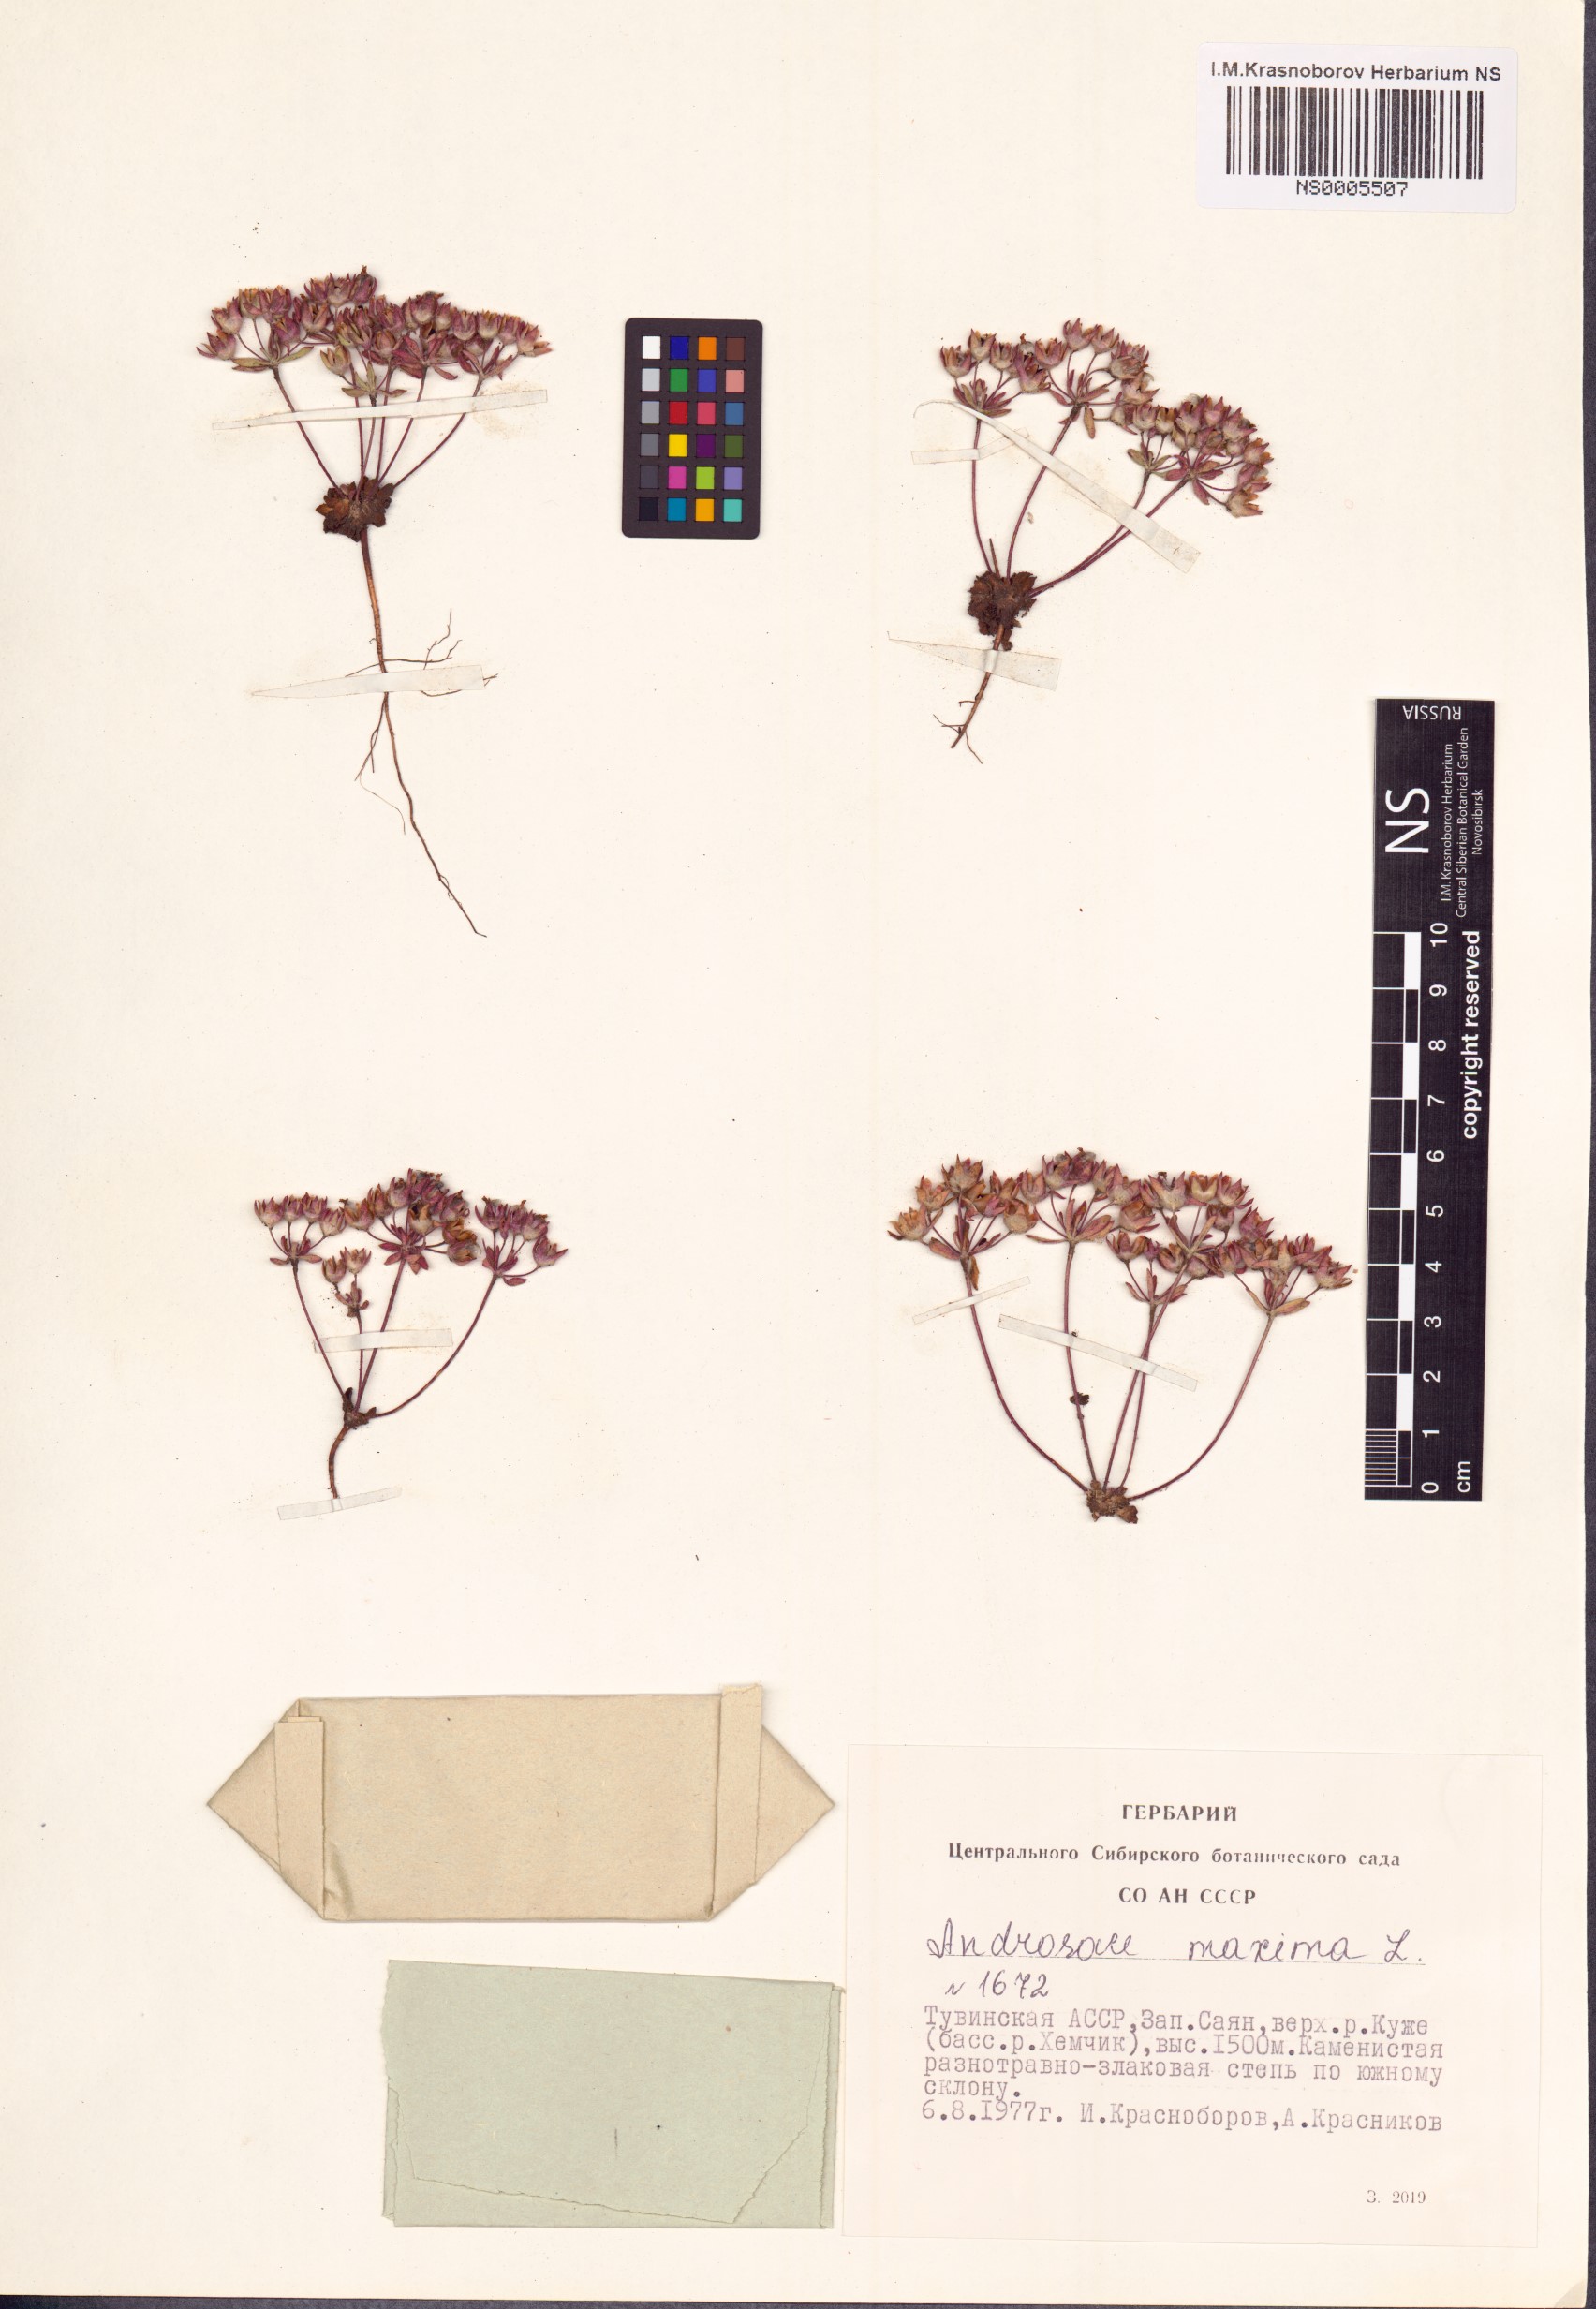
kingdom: Plantae
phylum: Tracheophyta
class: Magnoliopsida
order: Ericales
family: Primulaceae
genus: Androsace
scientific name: Androsace maxima
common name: Annual androsace
